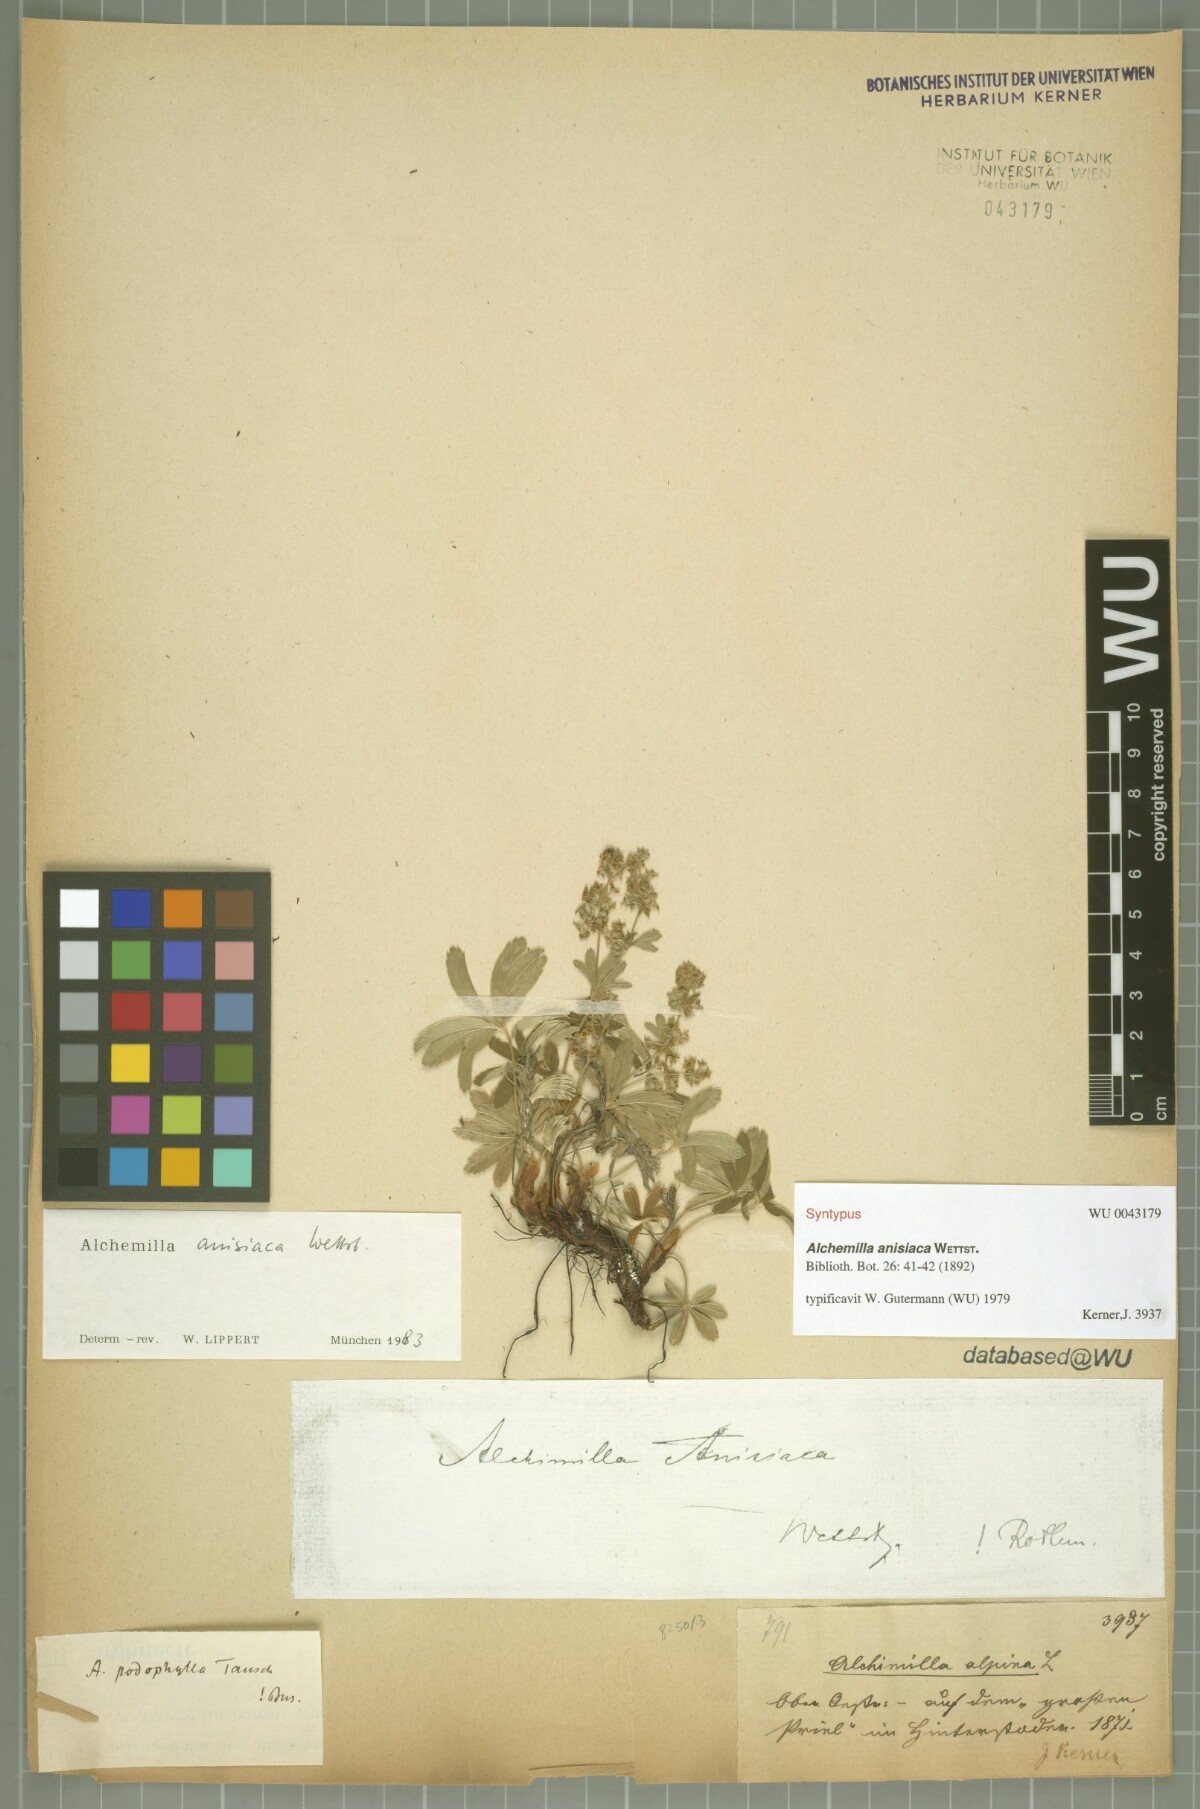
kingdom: Plantae
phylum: Tracheophyta
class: Magnoliopsida
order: Rosales
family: Rosaceae
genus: Alchemilla
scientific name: Alchemilla anisiaca
